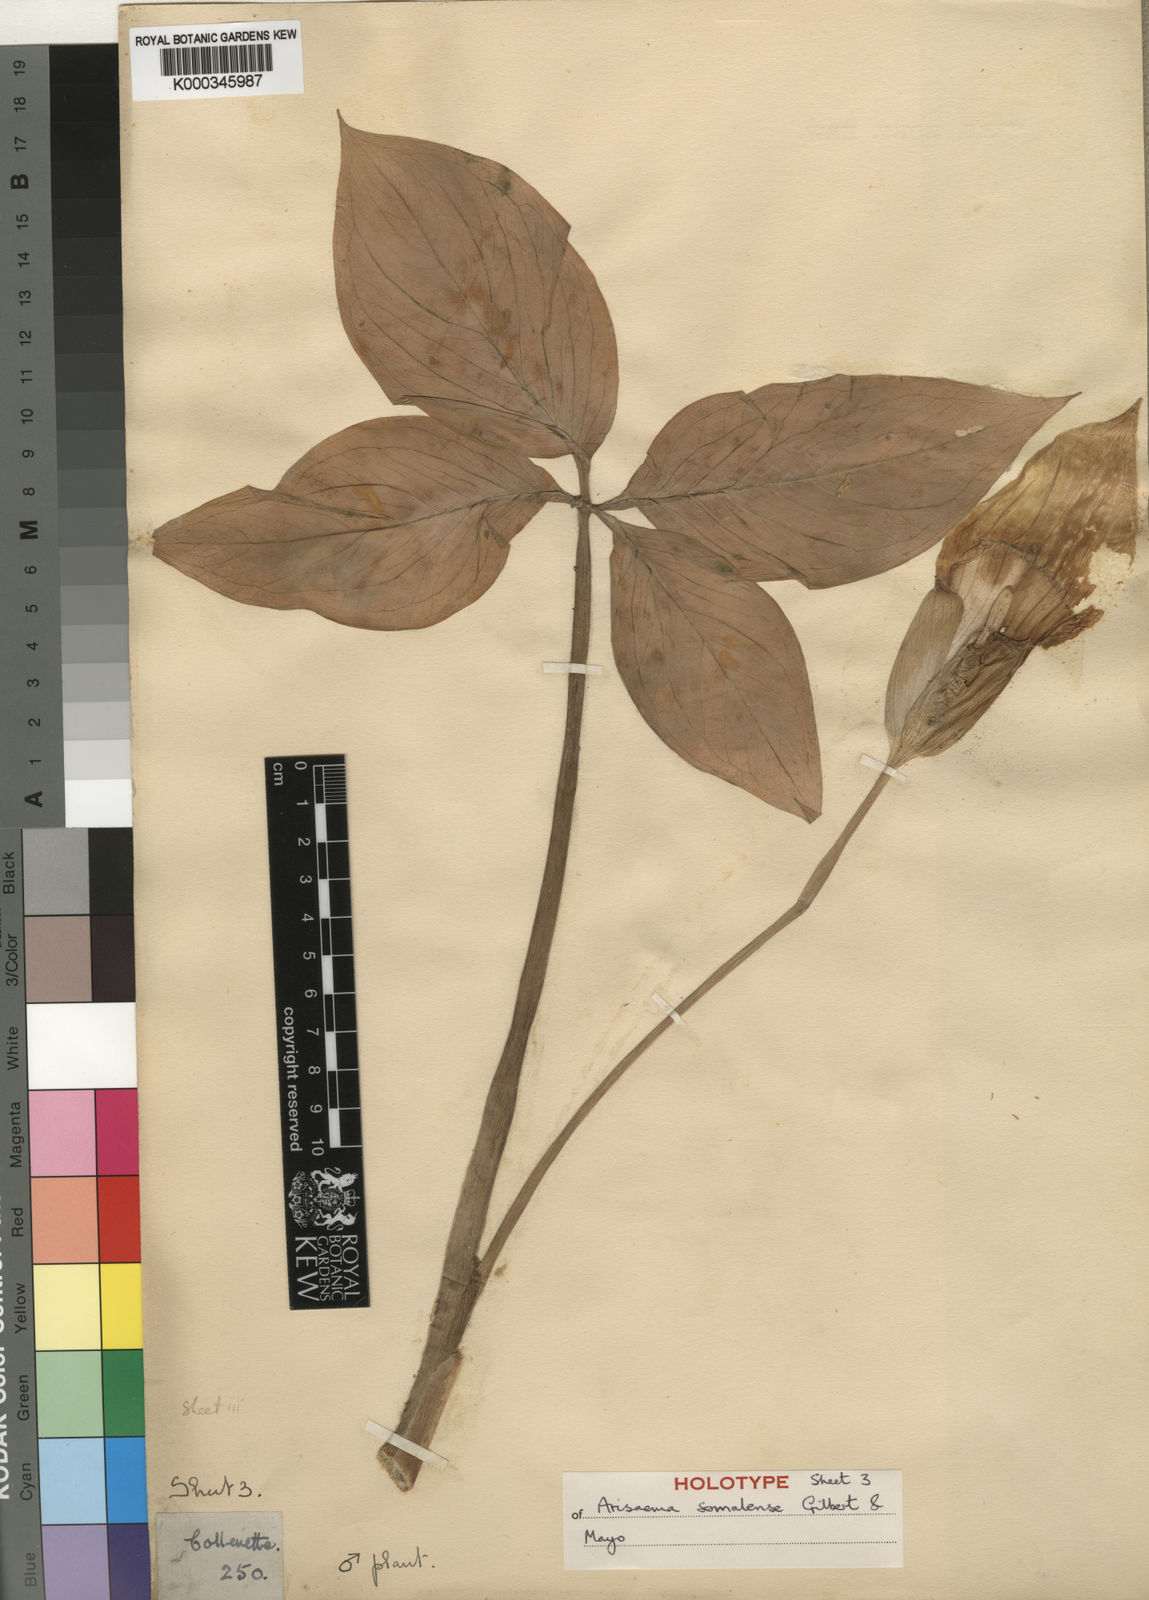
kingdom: Plantae
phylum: Tracheophyta
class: Liliopsida
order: Alismatales
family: Araceae
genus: Arisaema
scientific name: Arisaema somalense
